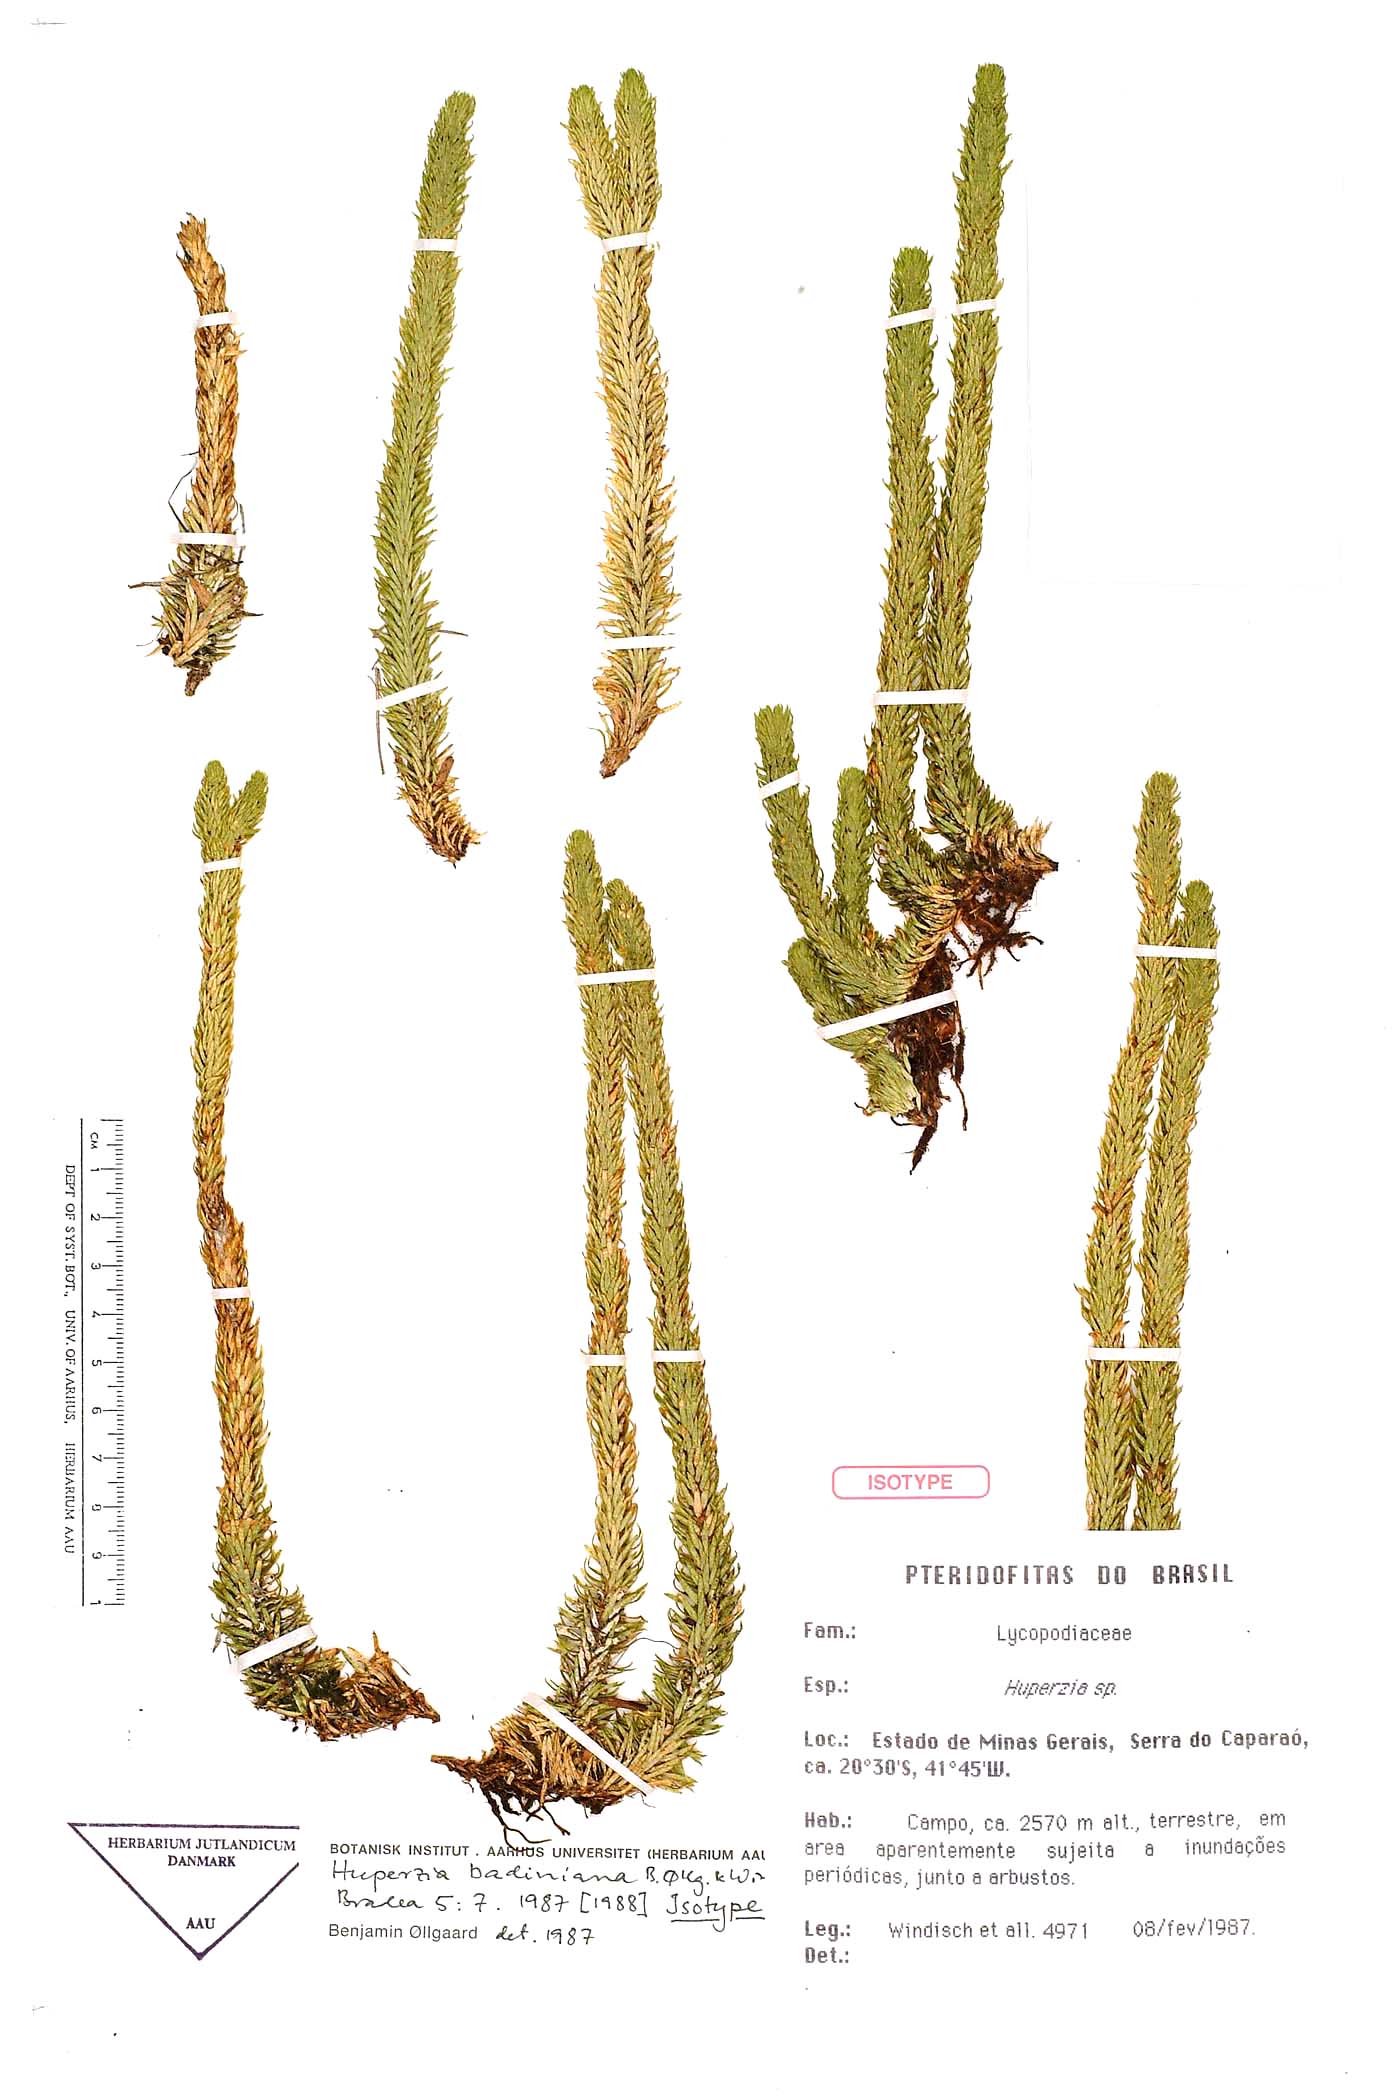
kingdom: Plantae
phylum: Tracheophyta
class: Lycopodiopsida
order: Lycopodiales
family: Lycopodiaceae
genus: Phlegmariurus
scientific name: Phlegmariurus badinianus
